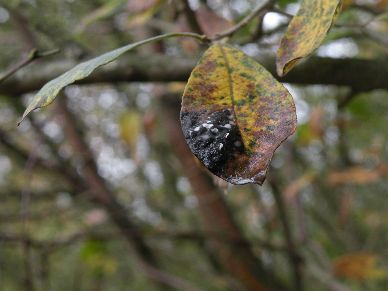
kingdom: Fungi
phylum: Ascomycota
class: Leotiomycetes
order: Rhytismatales
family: Rhytismataceae
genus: Rhytisma
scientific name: Rhytisma salicinum
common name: pile-rynkeplet
